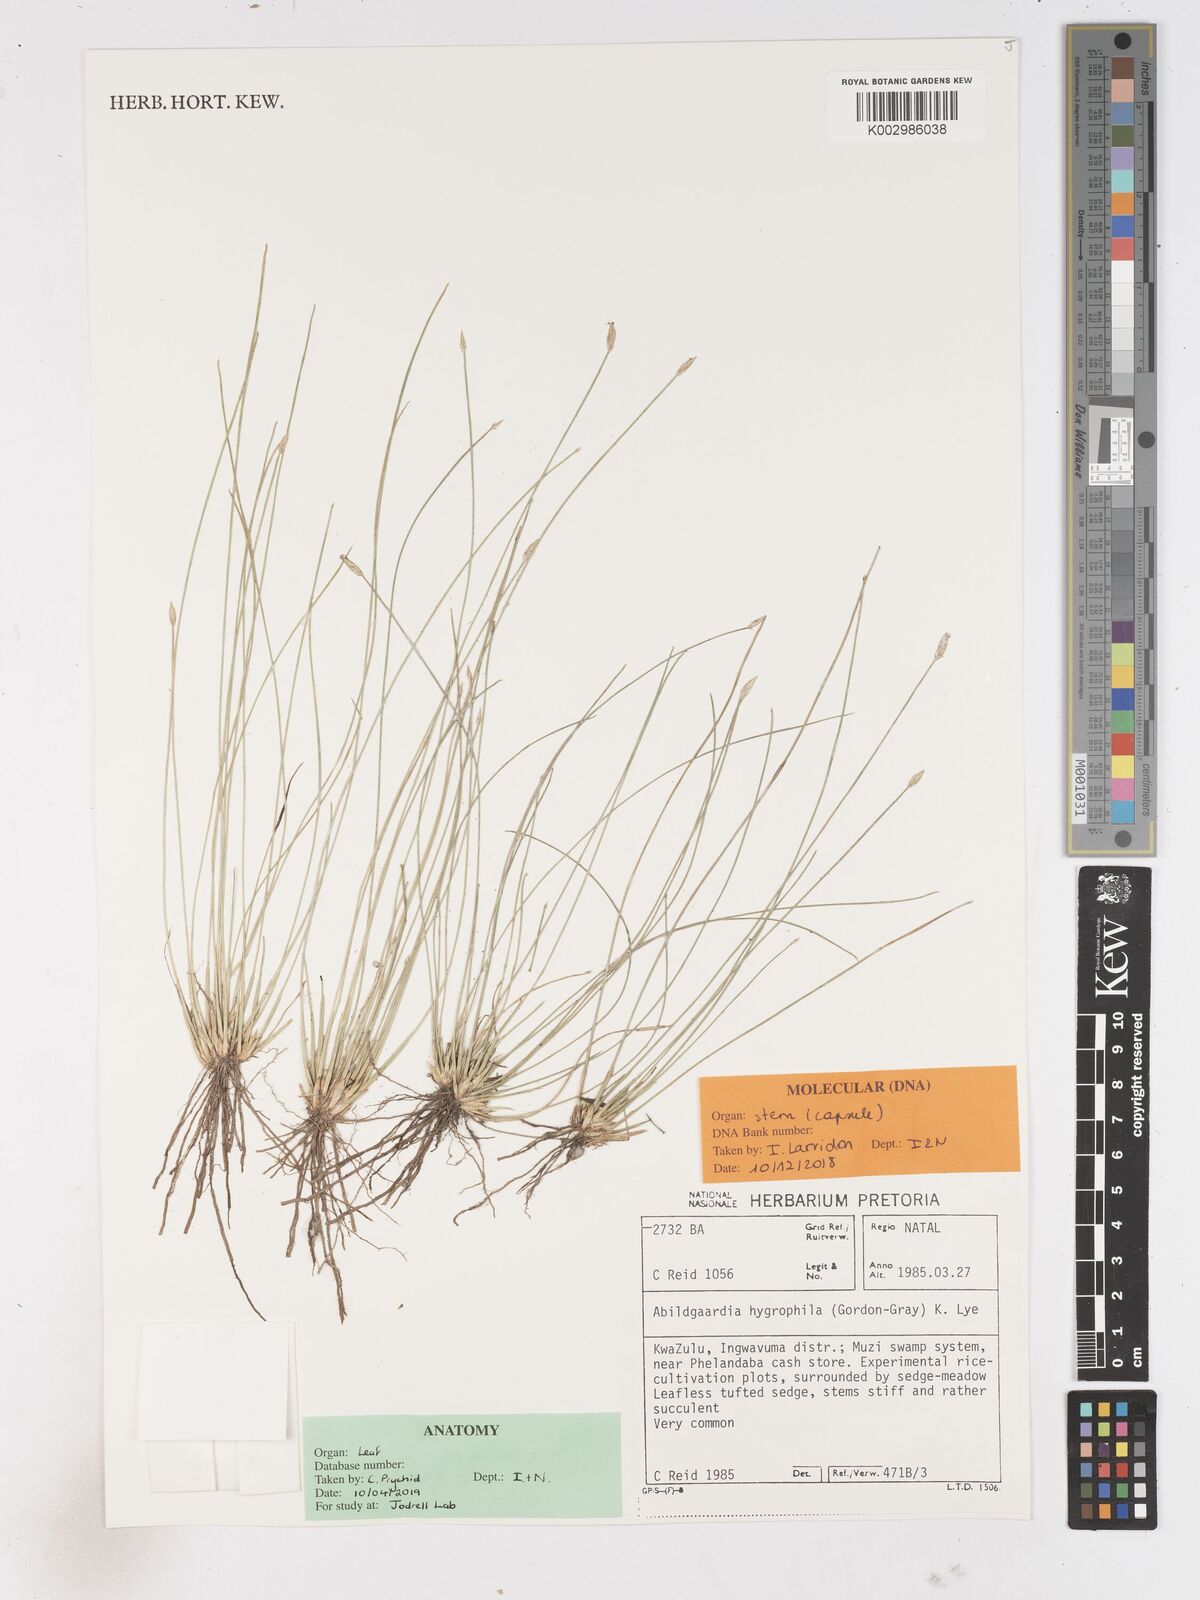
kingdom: Plantae
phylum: Tracheophyta
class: Liliopsida
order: Poales
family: Cyperaceae
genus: Zulustylis
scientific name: Zulustylis hygrophila
